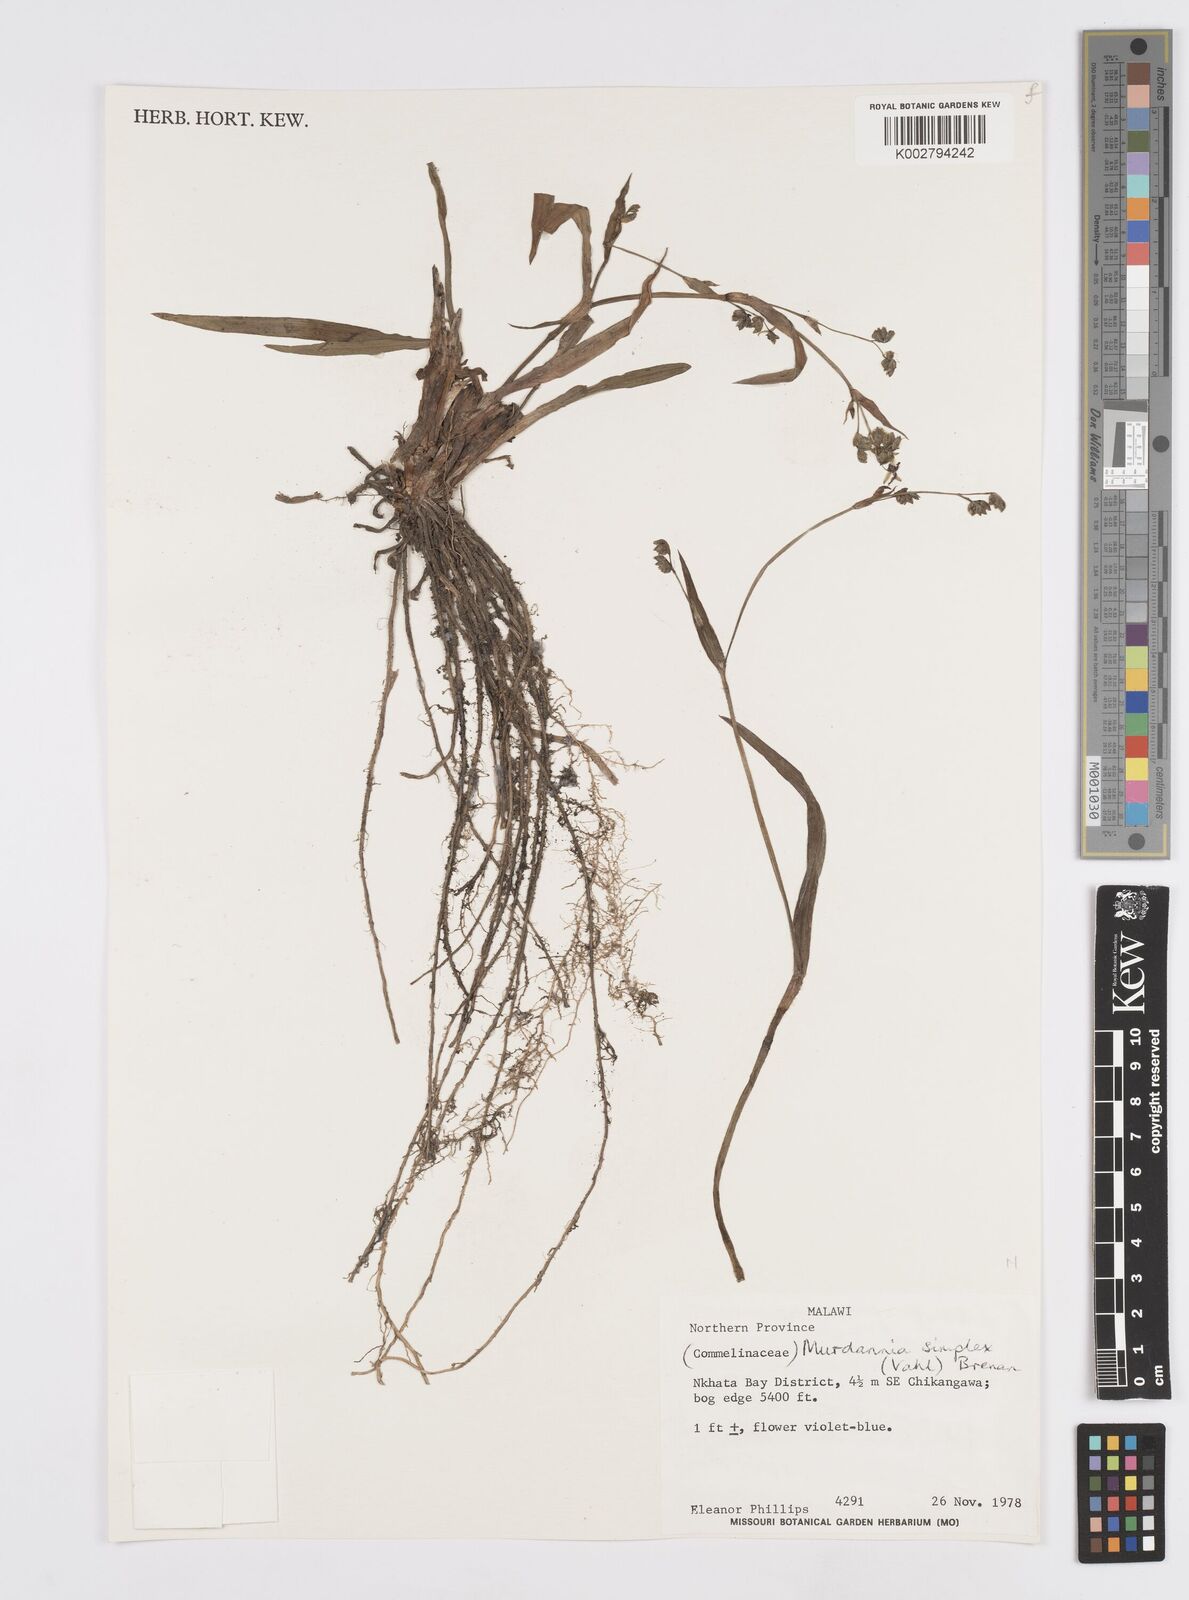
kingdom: Plantae
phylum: Tracheophyta
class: Liliopsida
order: Commelinales
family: Commelinaceae
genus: Murdannia
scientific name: Murdannia simplex
